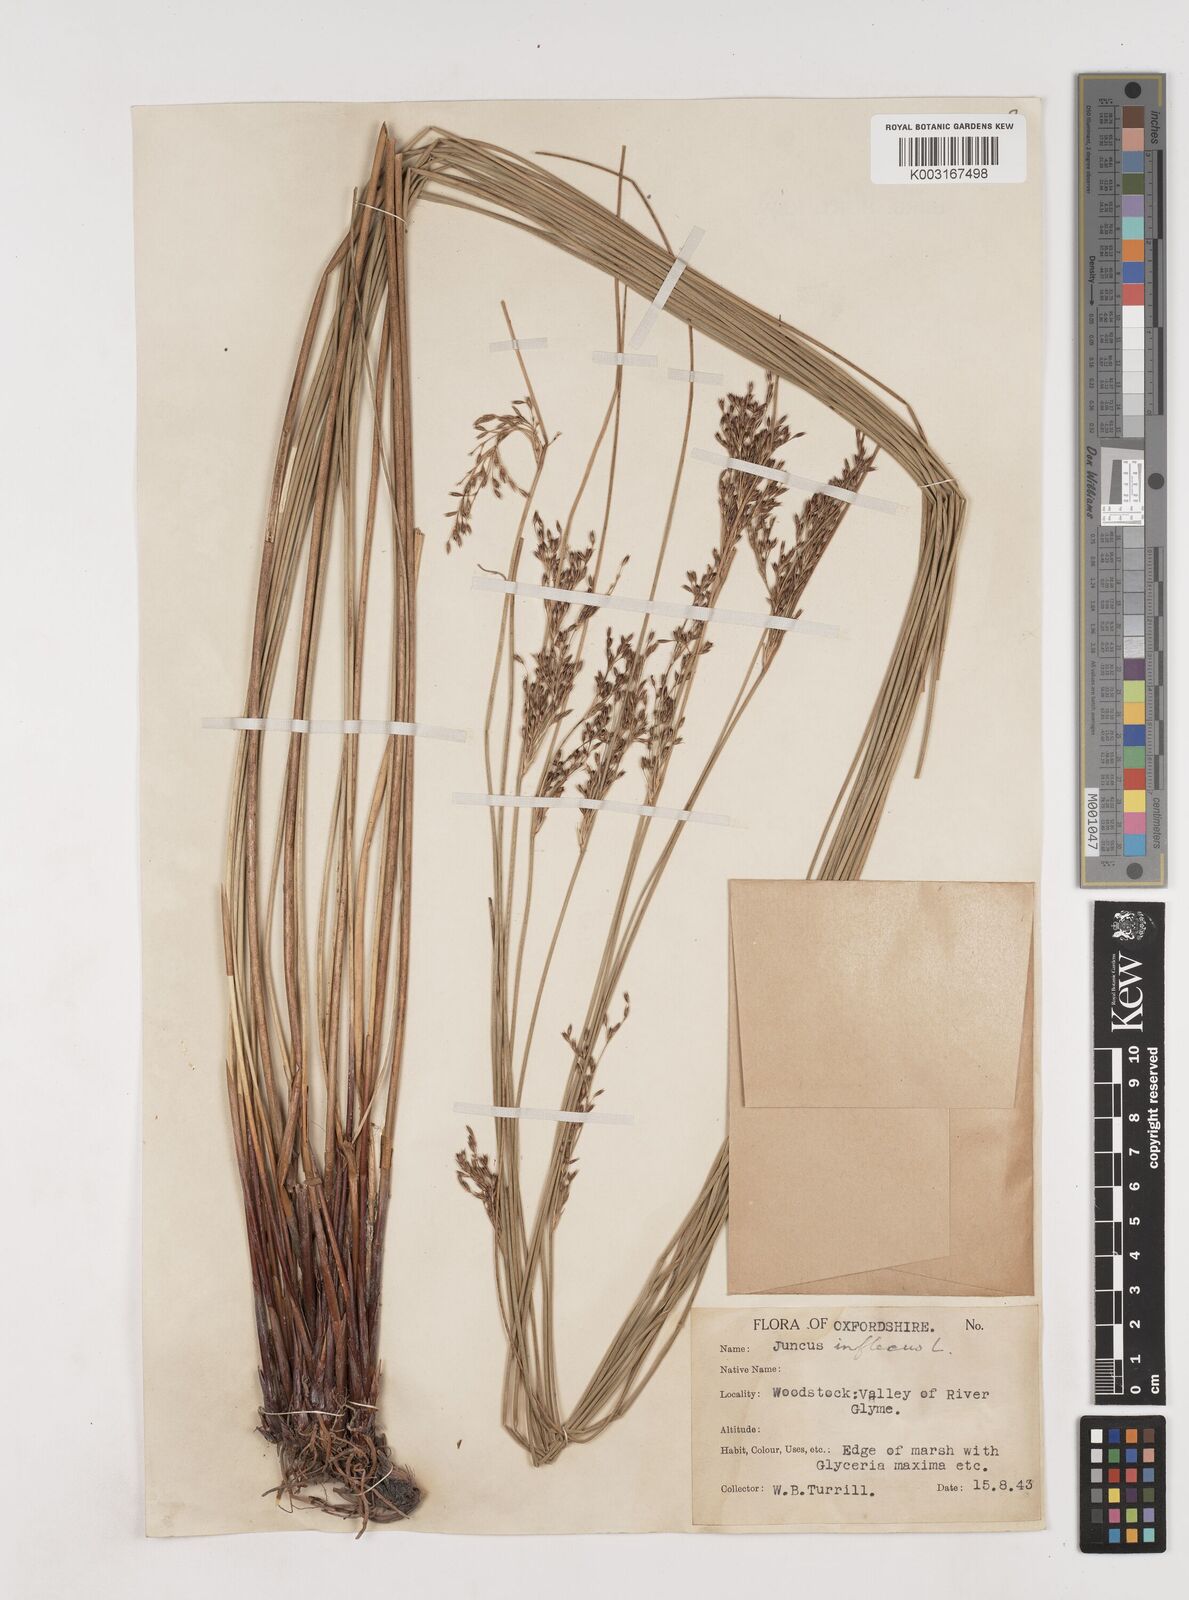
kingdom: Plantae
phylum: Tracheophyta
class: Liliopsida
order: Poales
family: Juncaceae
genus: Juncus
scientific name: Juncus inflexus
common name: Hard rush
